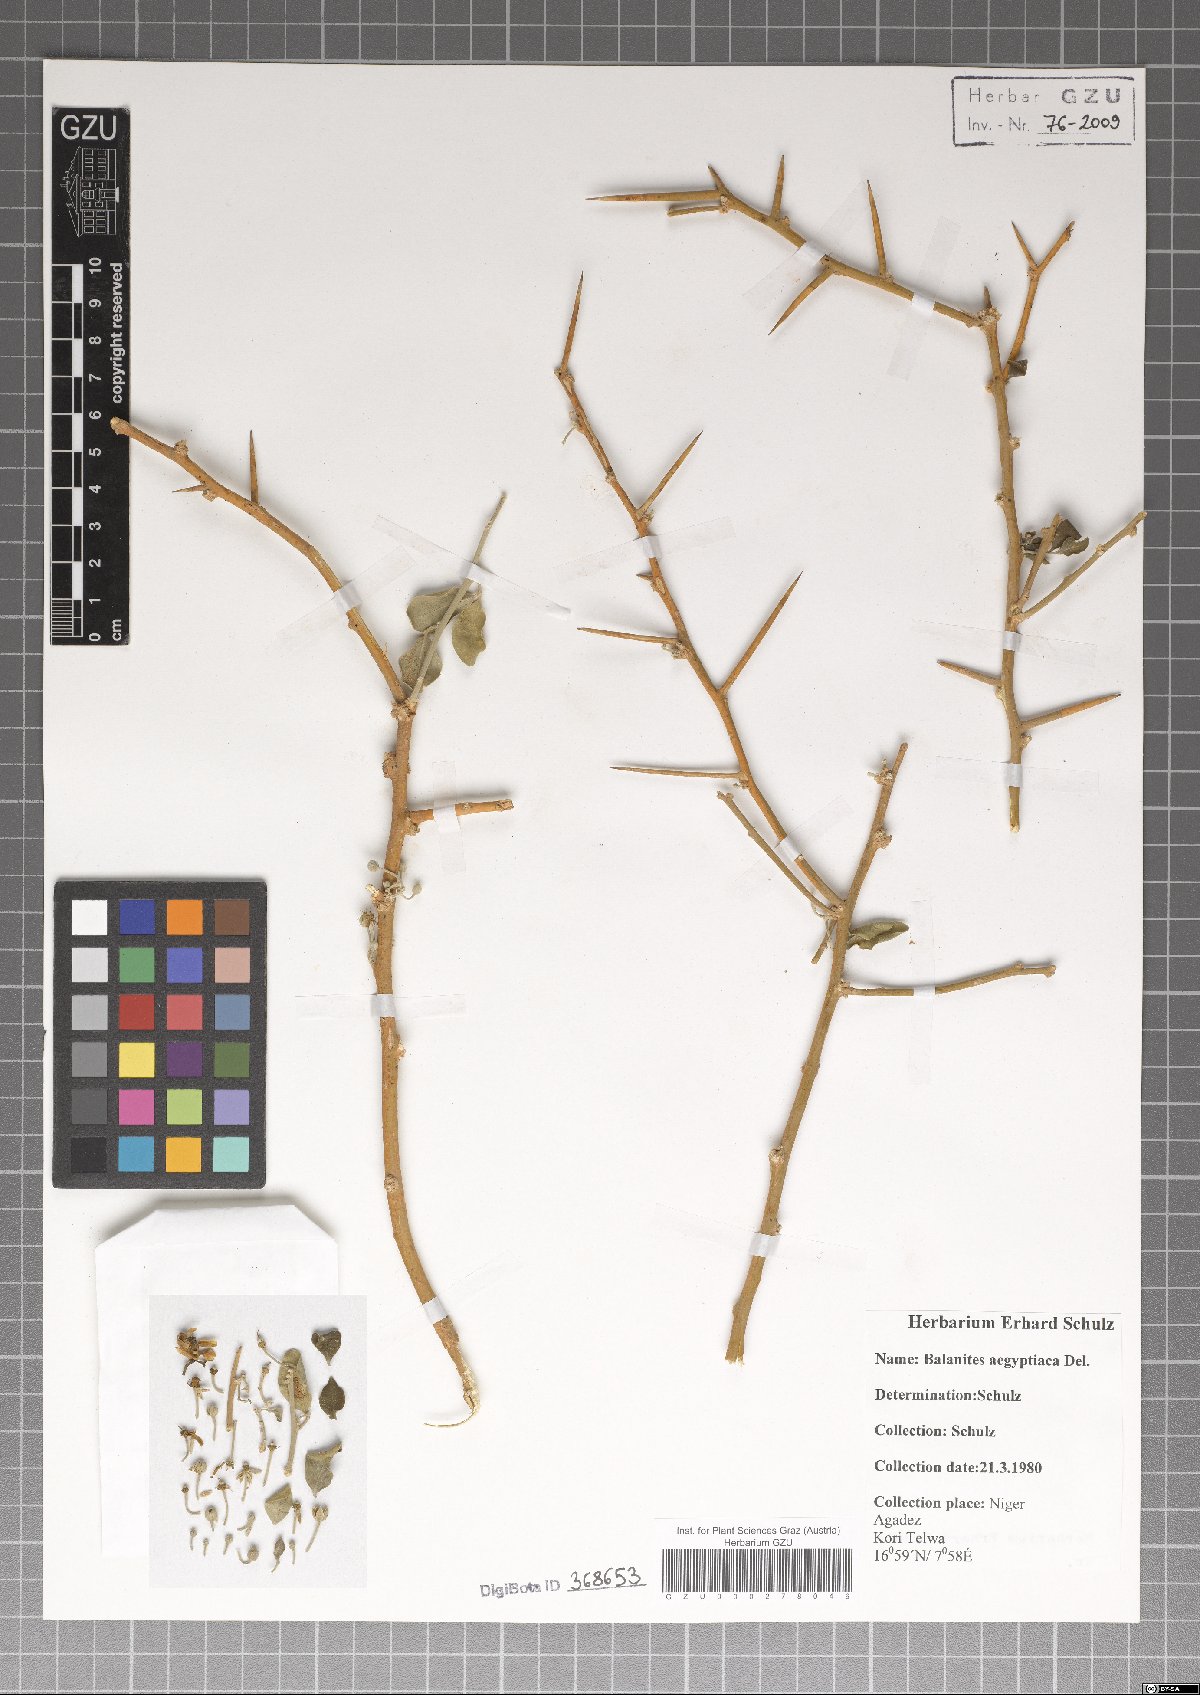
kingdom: Plantae
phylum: Tracheophyta
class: Magnoliopsida
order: Zygophyllales
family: Zygophyllaceae
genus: Balanites
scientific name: Balanites aegyptiaca
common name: Balanites
